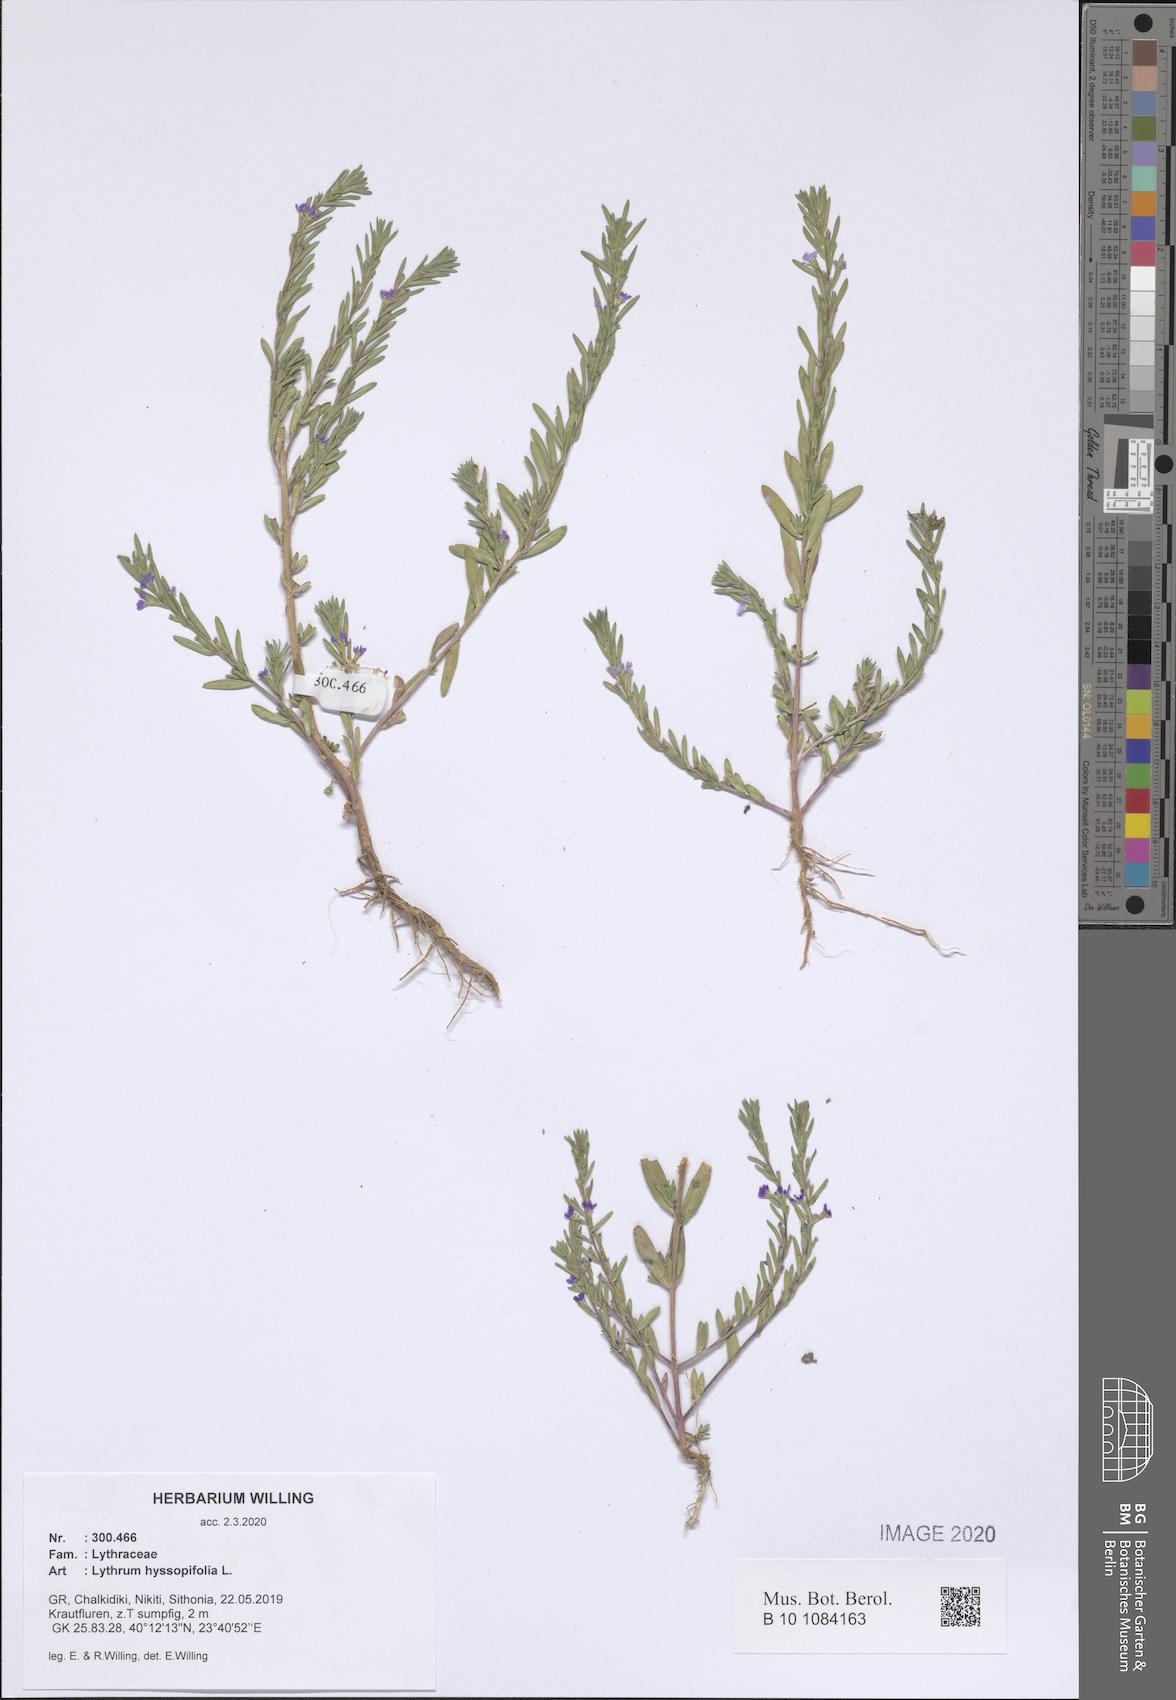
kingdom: Plantae
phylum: Tracheophyta
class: Magnoliopsida
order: Myrtales
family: Lythraceae
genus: Lythrum
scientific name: Lythrum hyssopifolia
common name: Grass-poly
